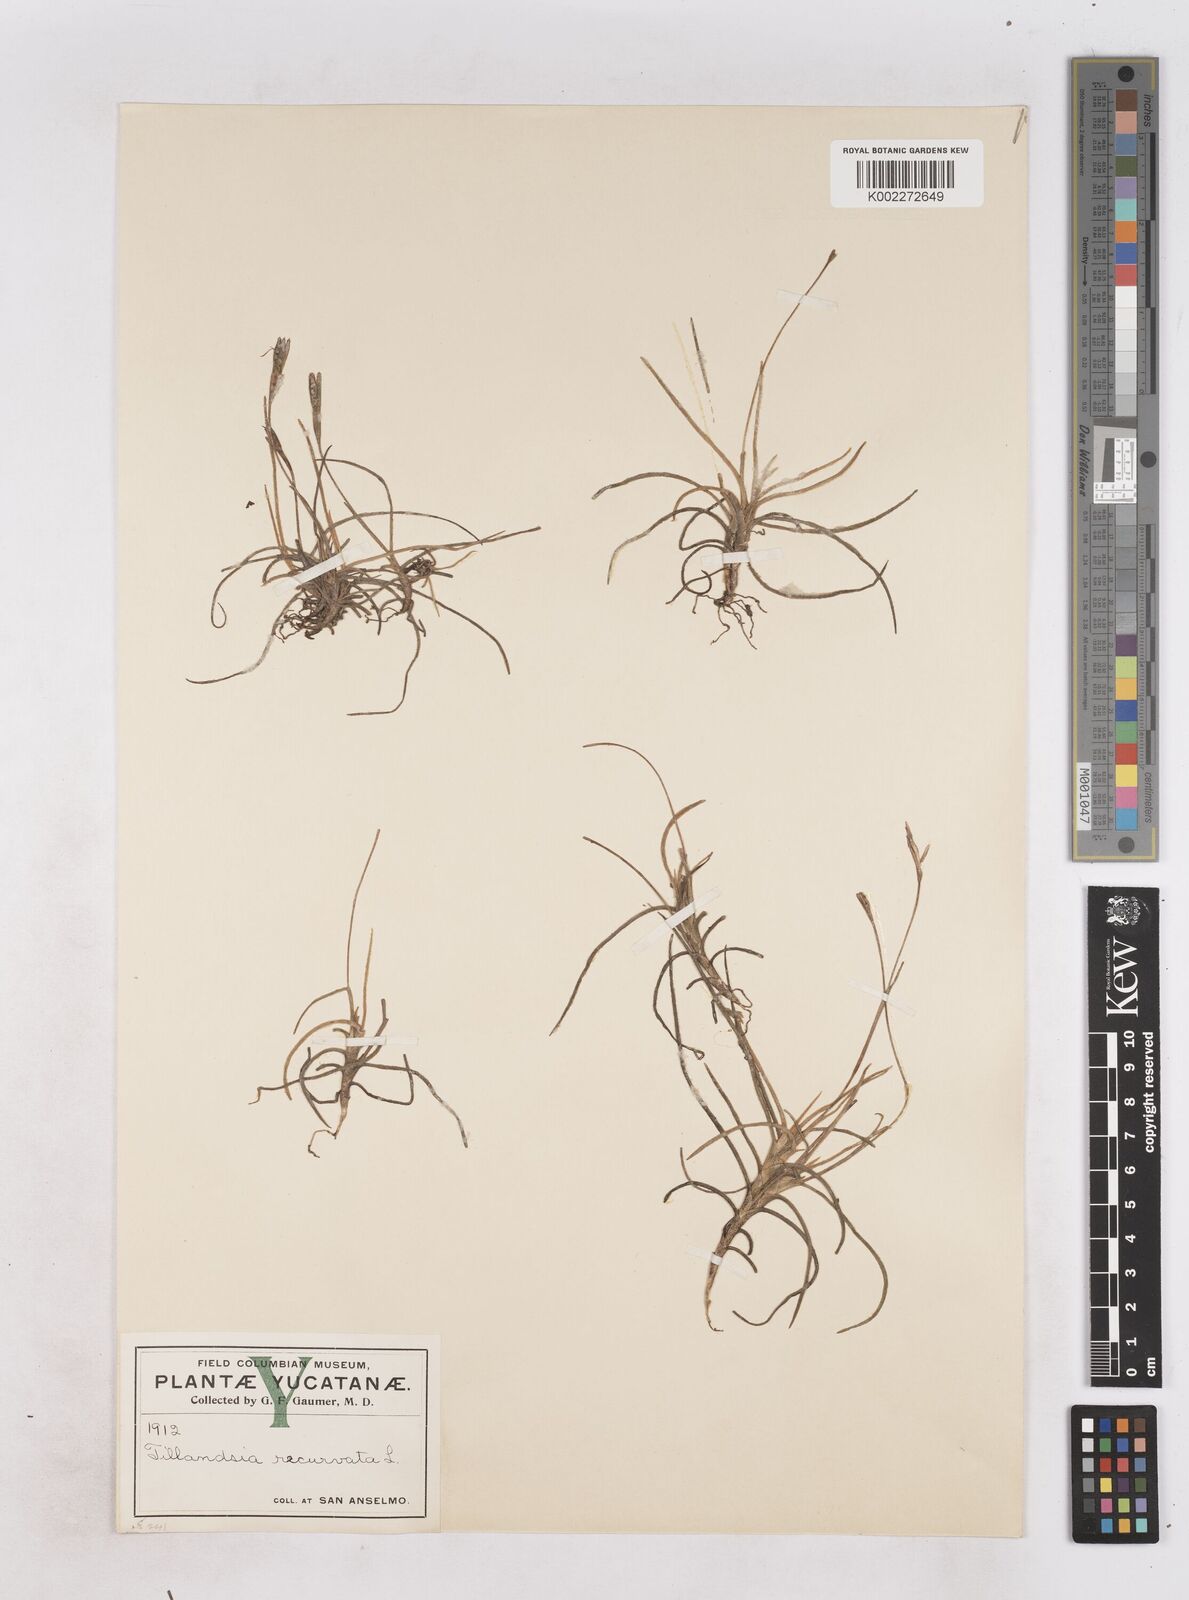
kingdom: Plantae
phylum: Tracheophyta
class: Liliopsida
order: Poales
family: Bromeliaceae
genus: Tillandsia
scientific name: Tillandsia recurvata
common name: Small ballmoss
